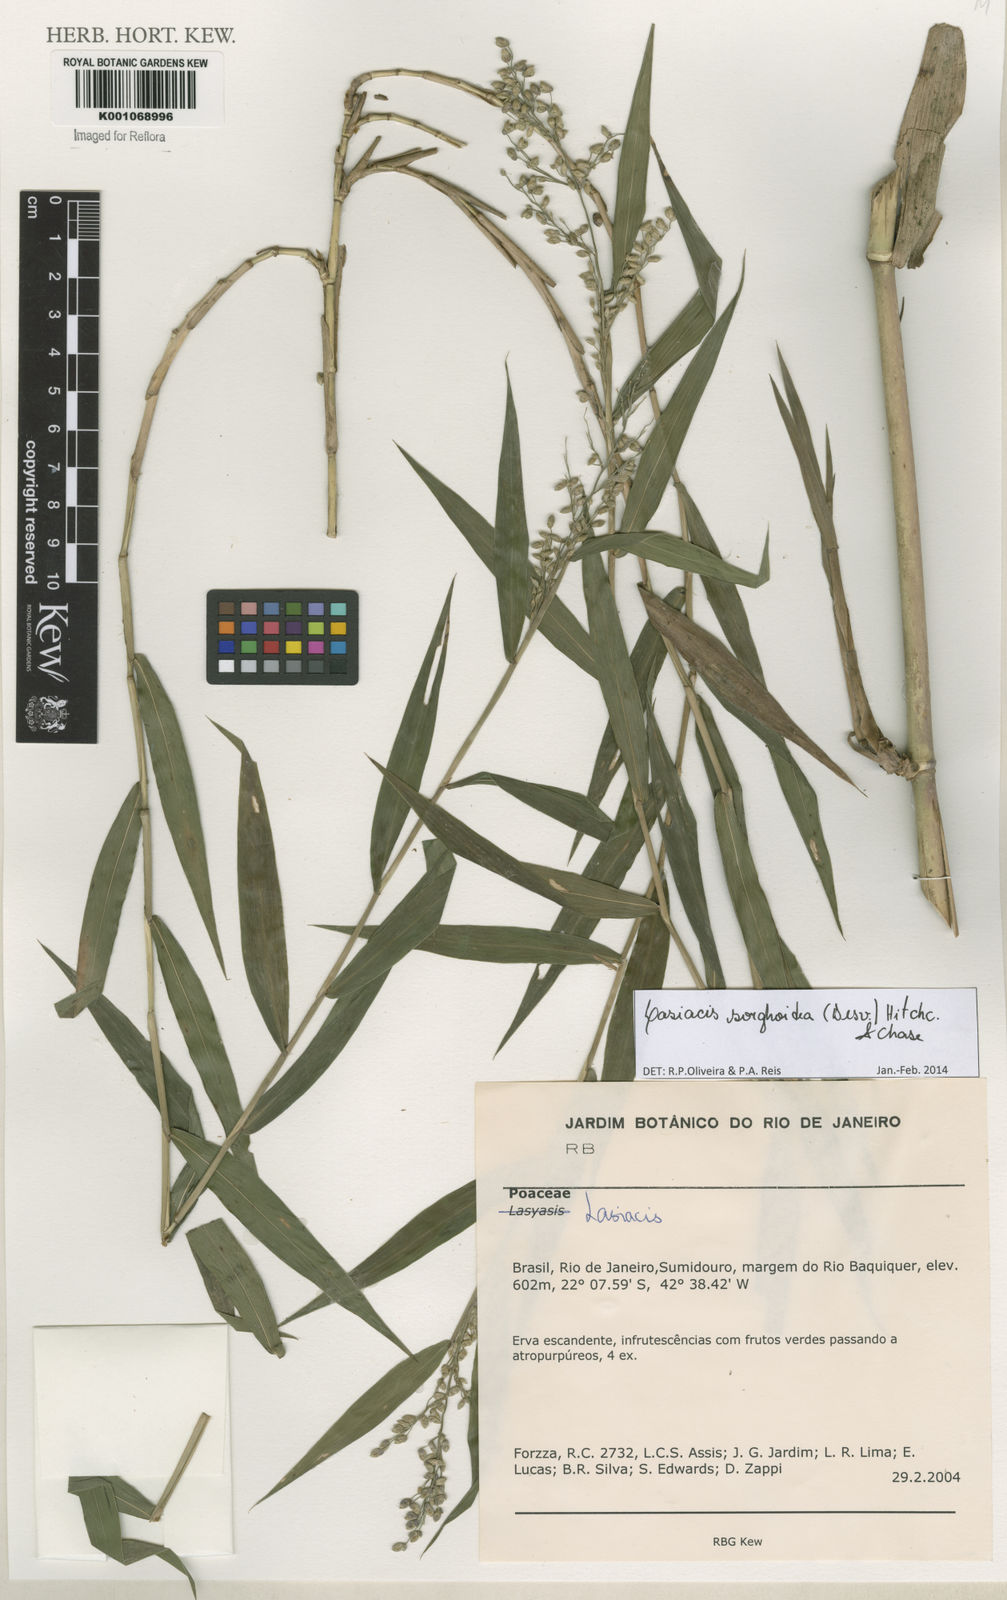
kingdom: Plantae
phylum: Tracheophyta
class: Liliopsida
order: Poales
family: Poaceae
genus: Lasiacis
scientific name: Lasiacis maculata
